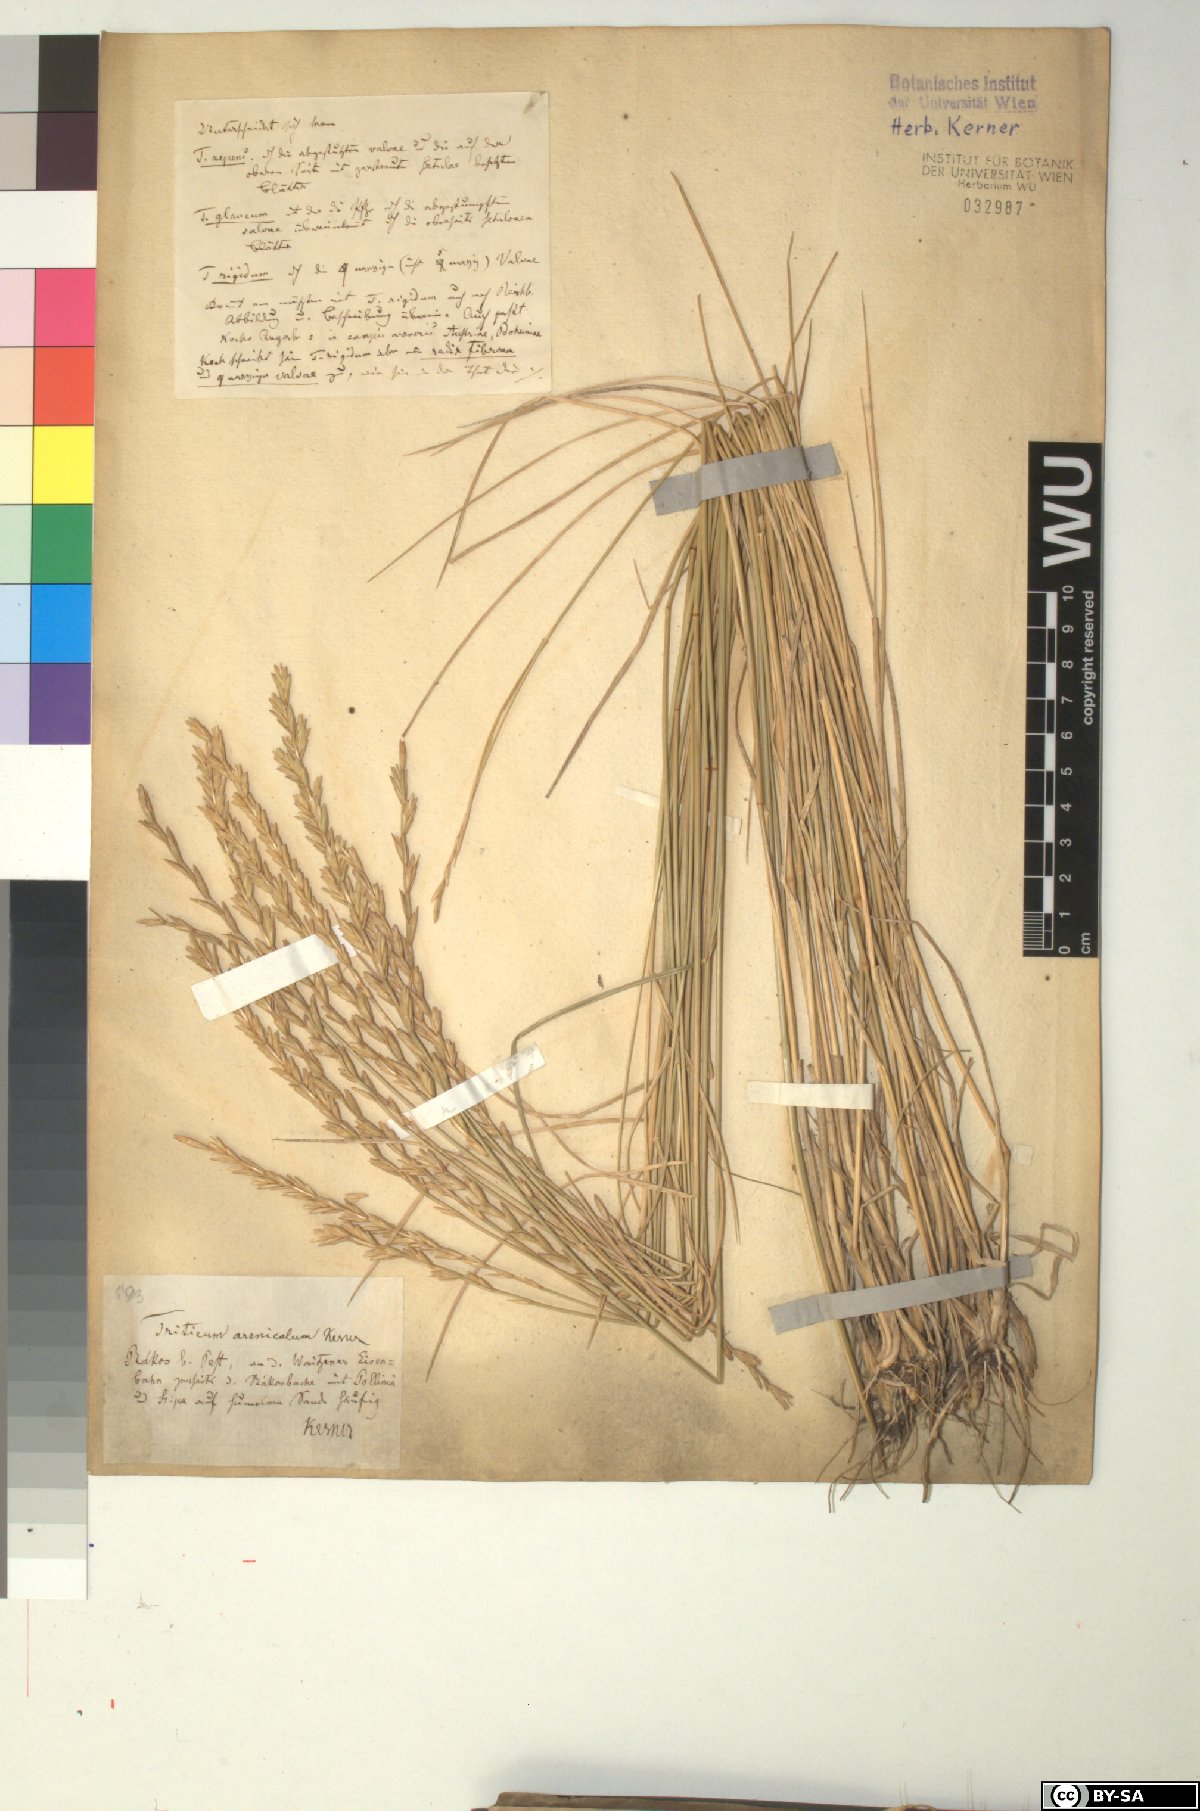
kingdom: Plantae
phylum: Tracheophyta
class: Liliopsida
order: Poales
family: Poaceae
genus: Thinopyrum
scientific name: Thinopyrum intermedium
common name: Intermediate wheatgrass
